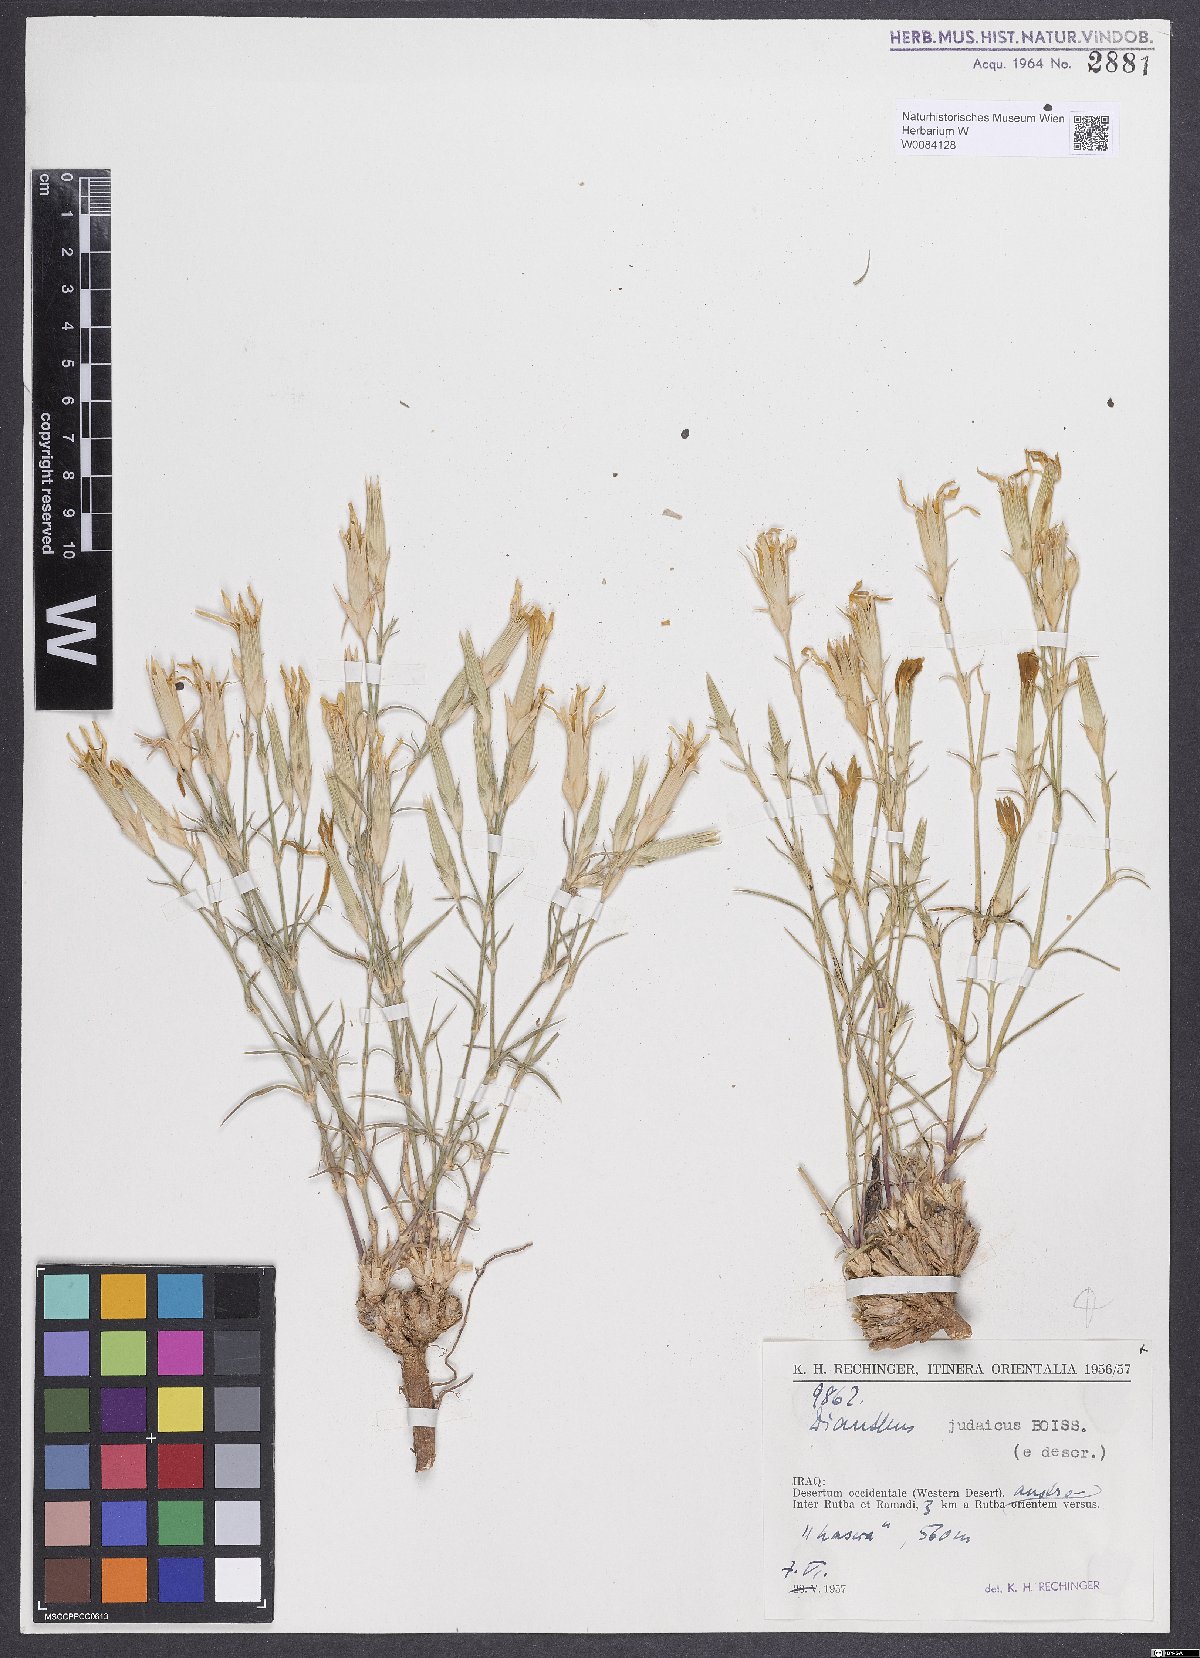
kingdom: Plantae
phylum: Tracheophyta
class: Magnoliopsida
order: Caryophyllales
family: Caryophyllaceae
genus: Dianthus
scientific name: Dianthus monadelphus
